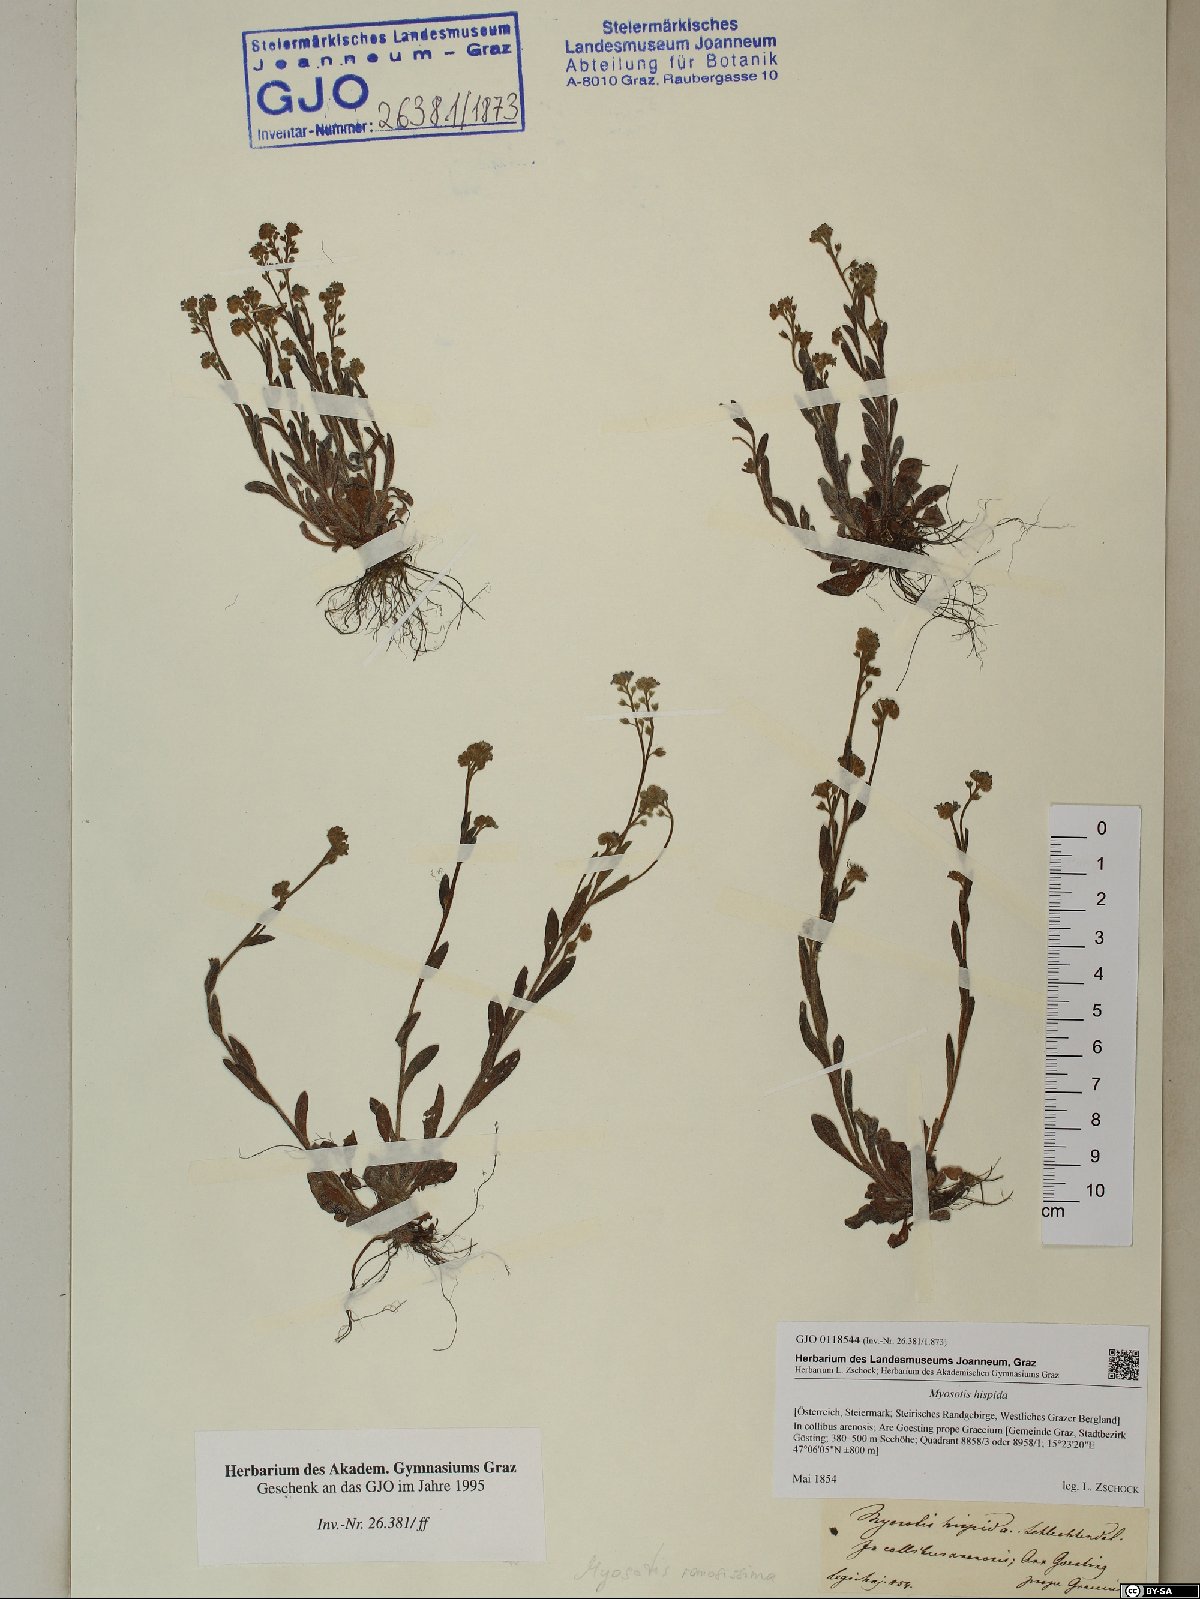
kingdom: Plantae
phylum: Tracheophyta
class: Magnoliopsida
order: Boraginales
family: Boraginaceae
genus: Myosotis
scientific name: Myosotis ramosissima
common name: Early forget-me-not
